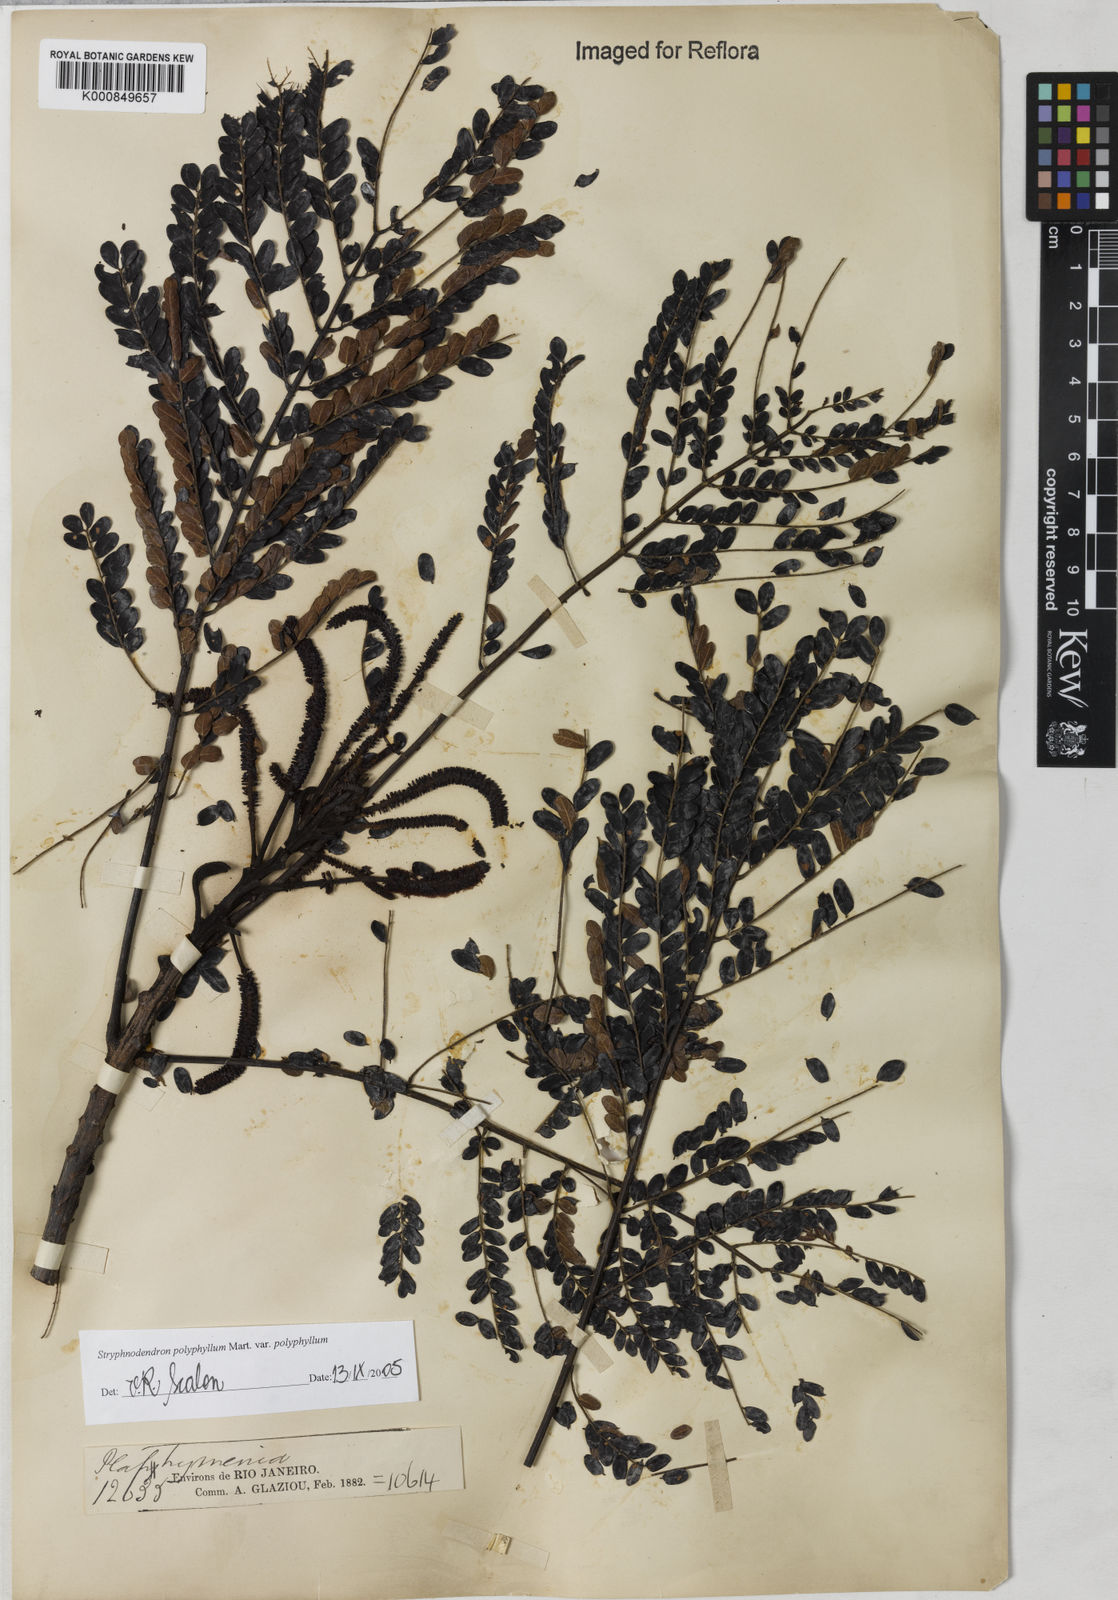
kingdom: Plantae
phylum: Tracheophyta
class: Magnoliopsida
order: Fabales
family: Fabaceae
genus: Stryphnodendron
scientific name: Stryphnodendron polyphyllum
